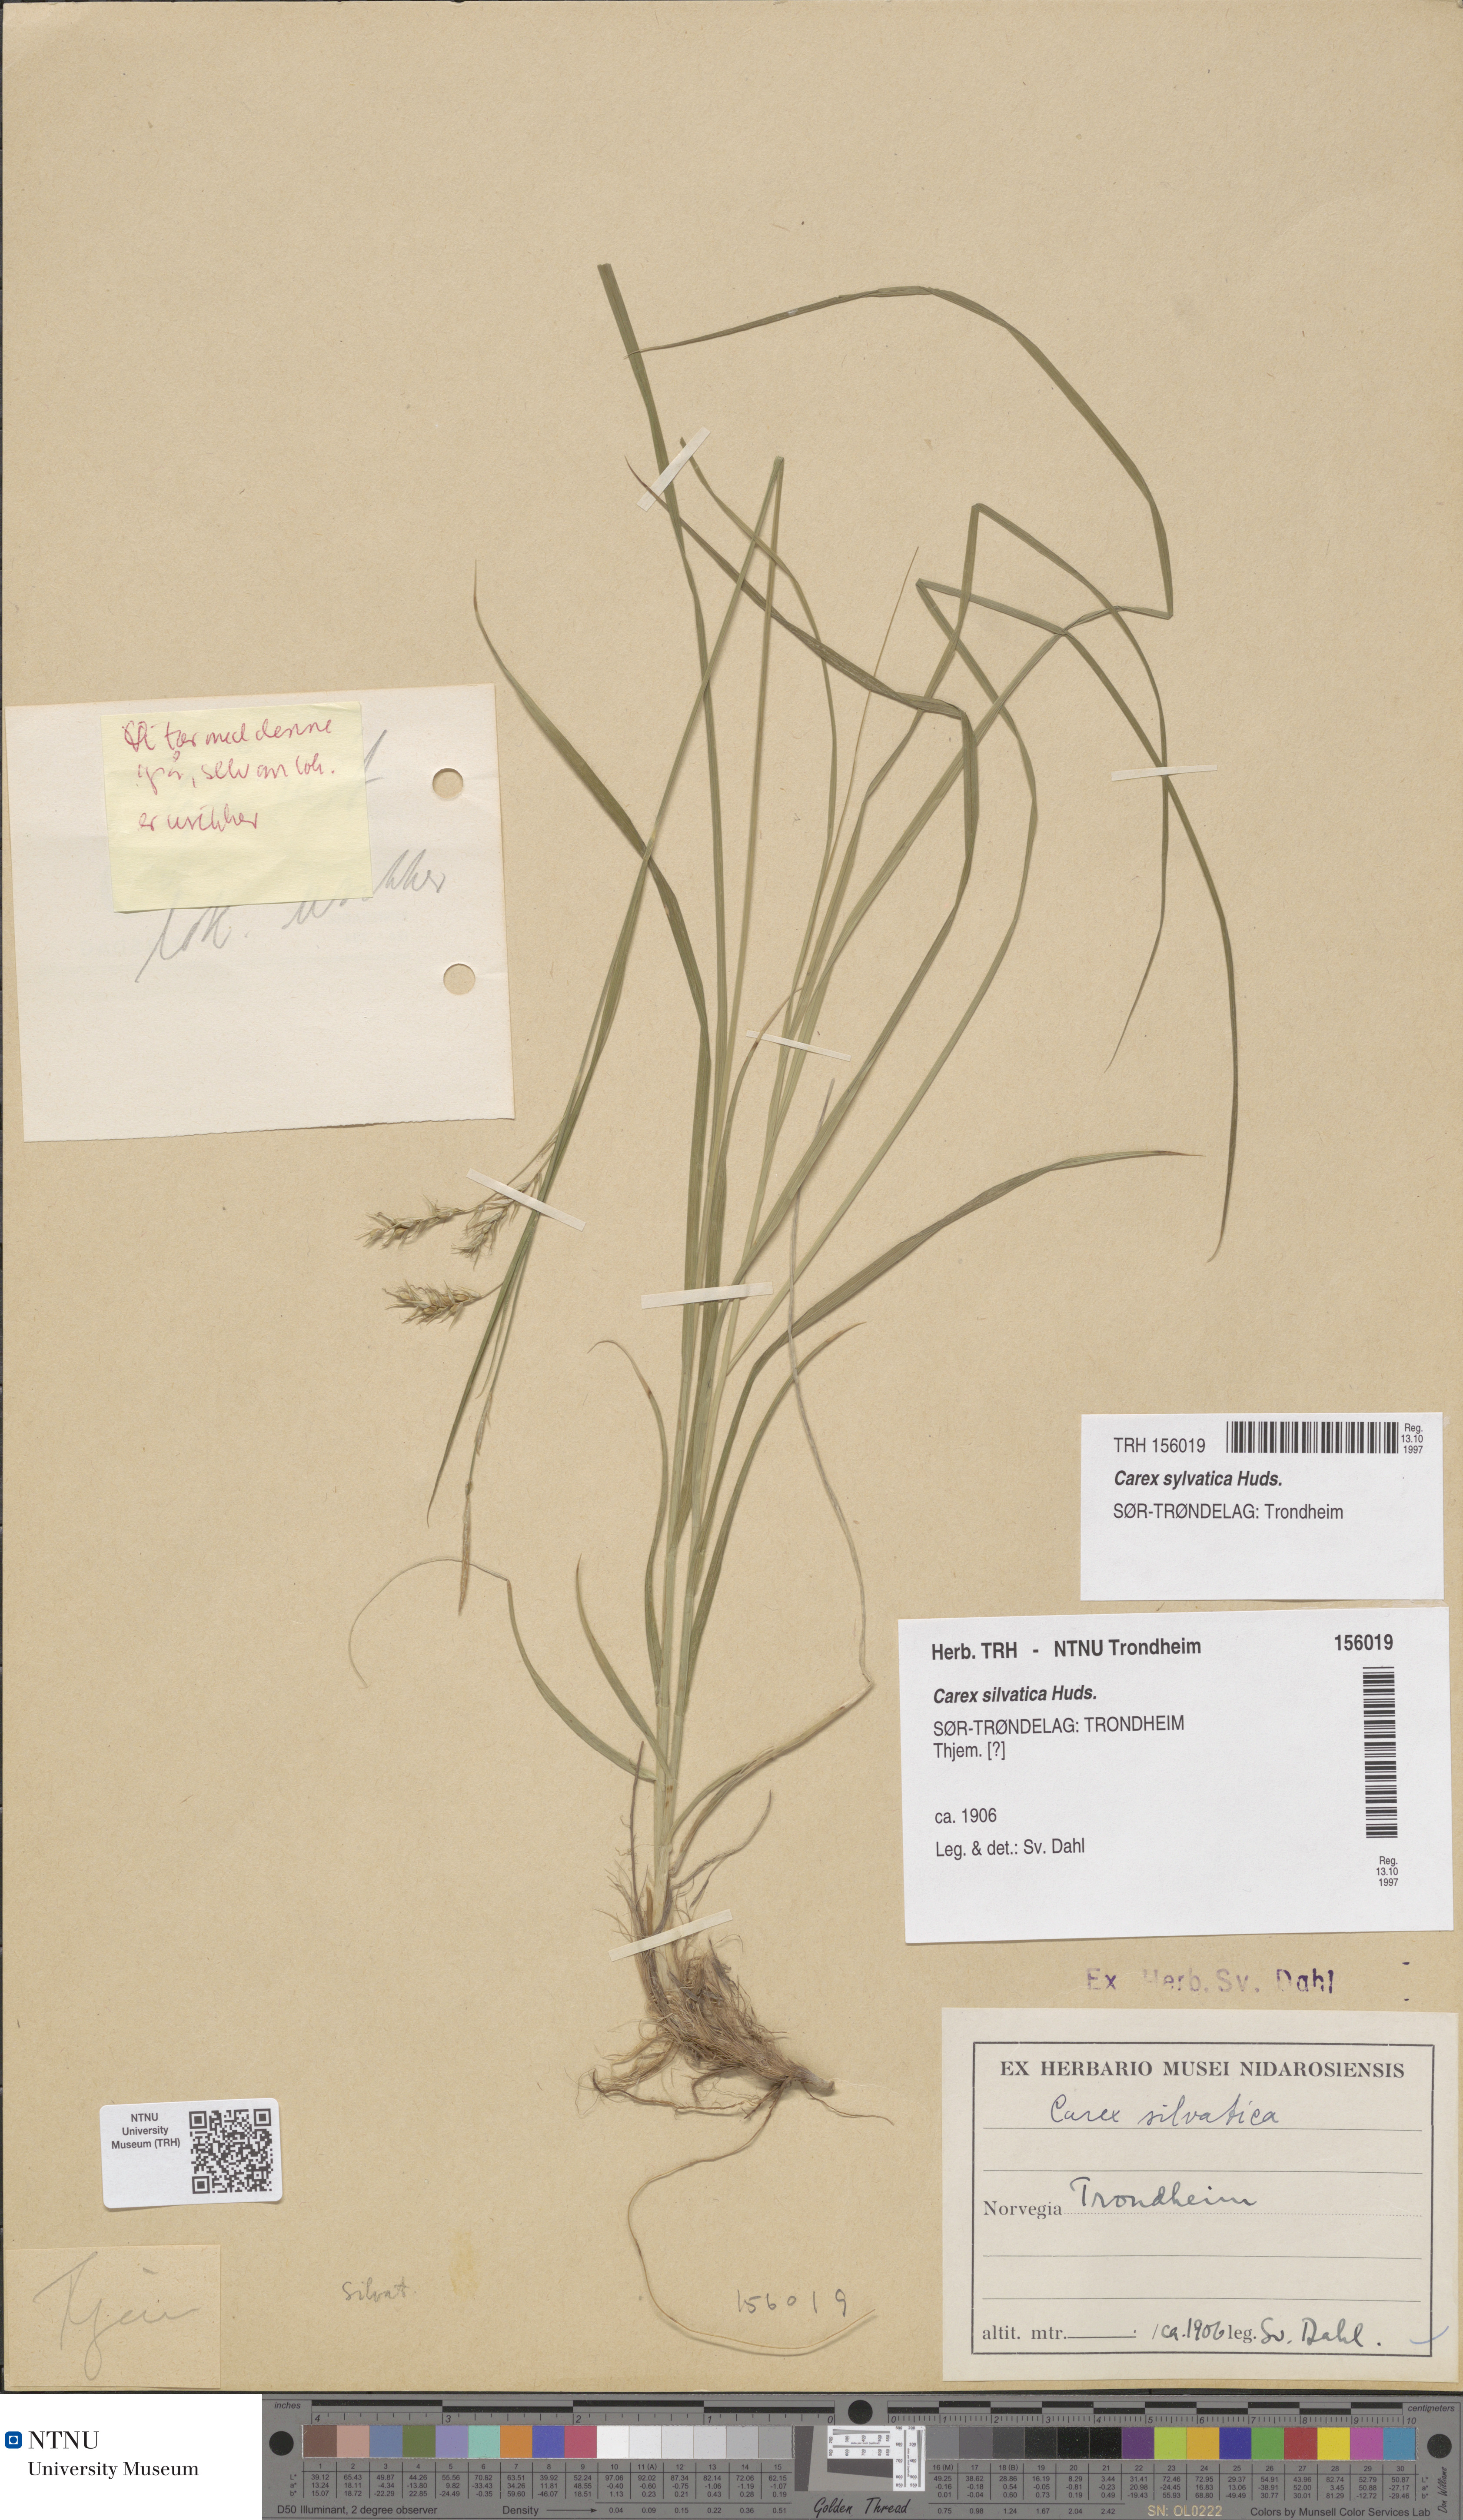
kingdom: Plantae
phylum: Tracheophyta
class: Liliopsida
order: Poales
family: Cyperaceae
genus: Carex
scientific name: Carex sylvatica
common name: Wood-sedge
